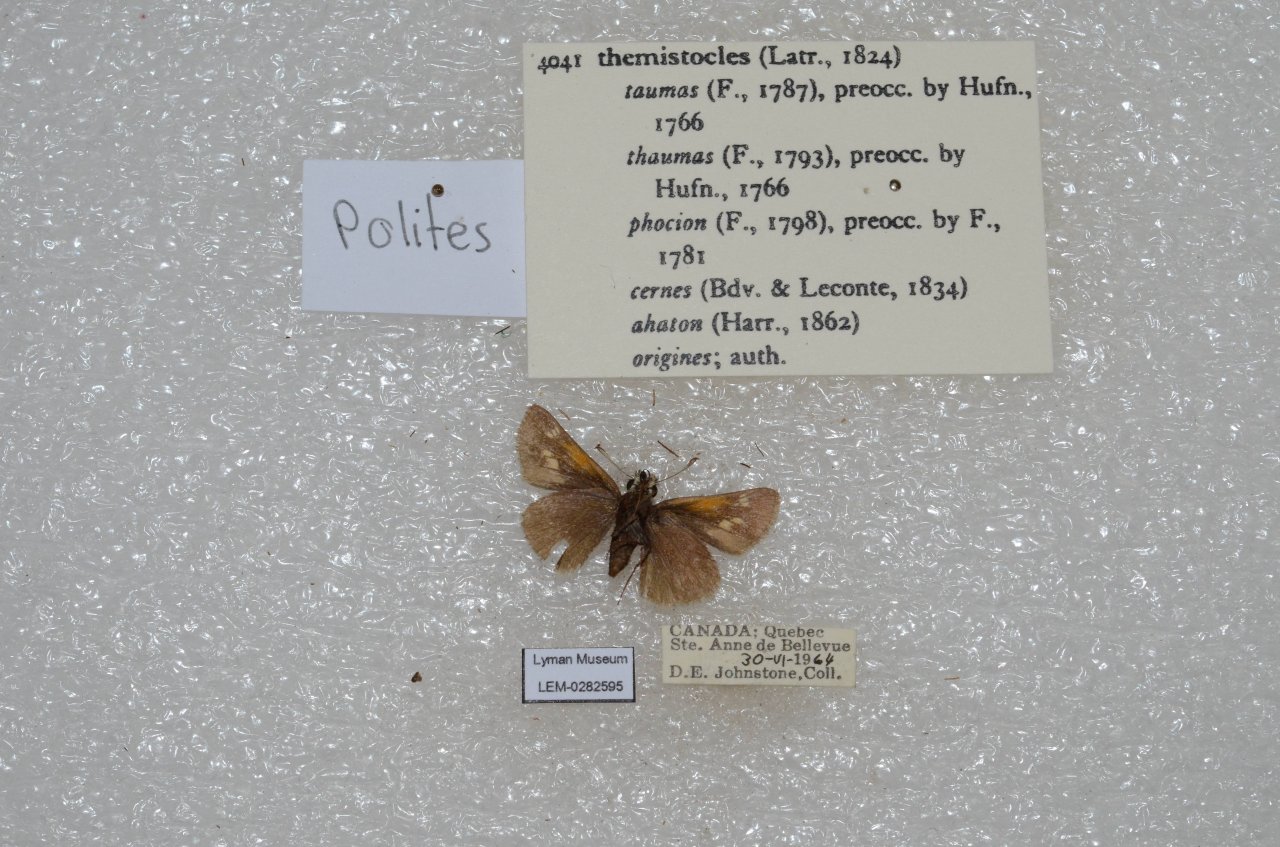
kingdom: Animalia
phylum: Arthropoda
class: Insecta
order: Lepidoptera
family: Hesperiidae
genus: Polites
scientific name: Polites themistocles
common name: Tawny-edged Skipper
